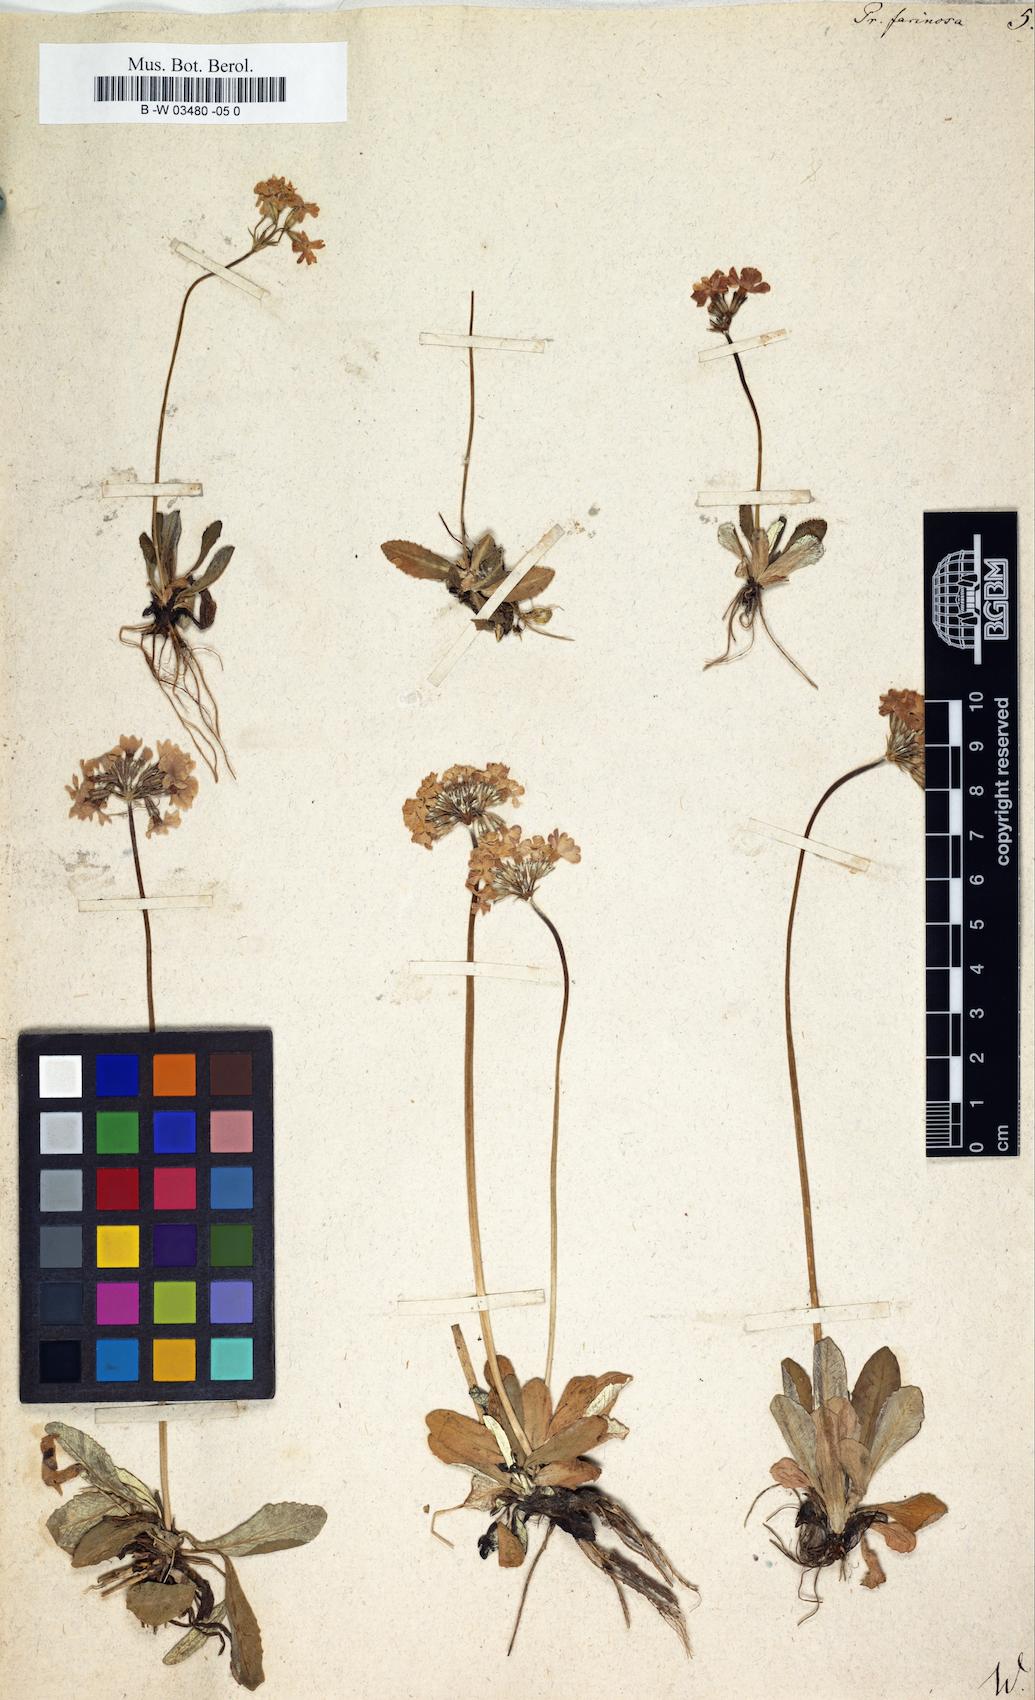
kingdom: Plantae
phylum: Tracheophyta
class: Magnoliopsida
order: Ericales
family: Primulaceae
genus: Primula
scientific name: Primula farinosa
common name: Bird's-eye primrose
